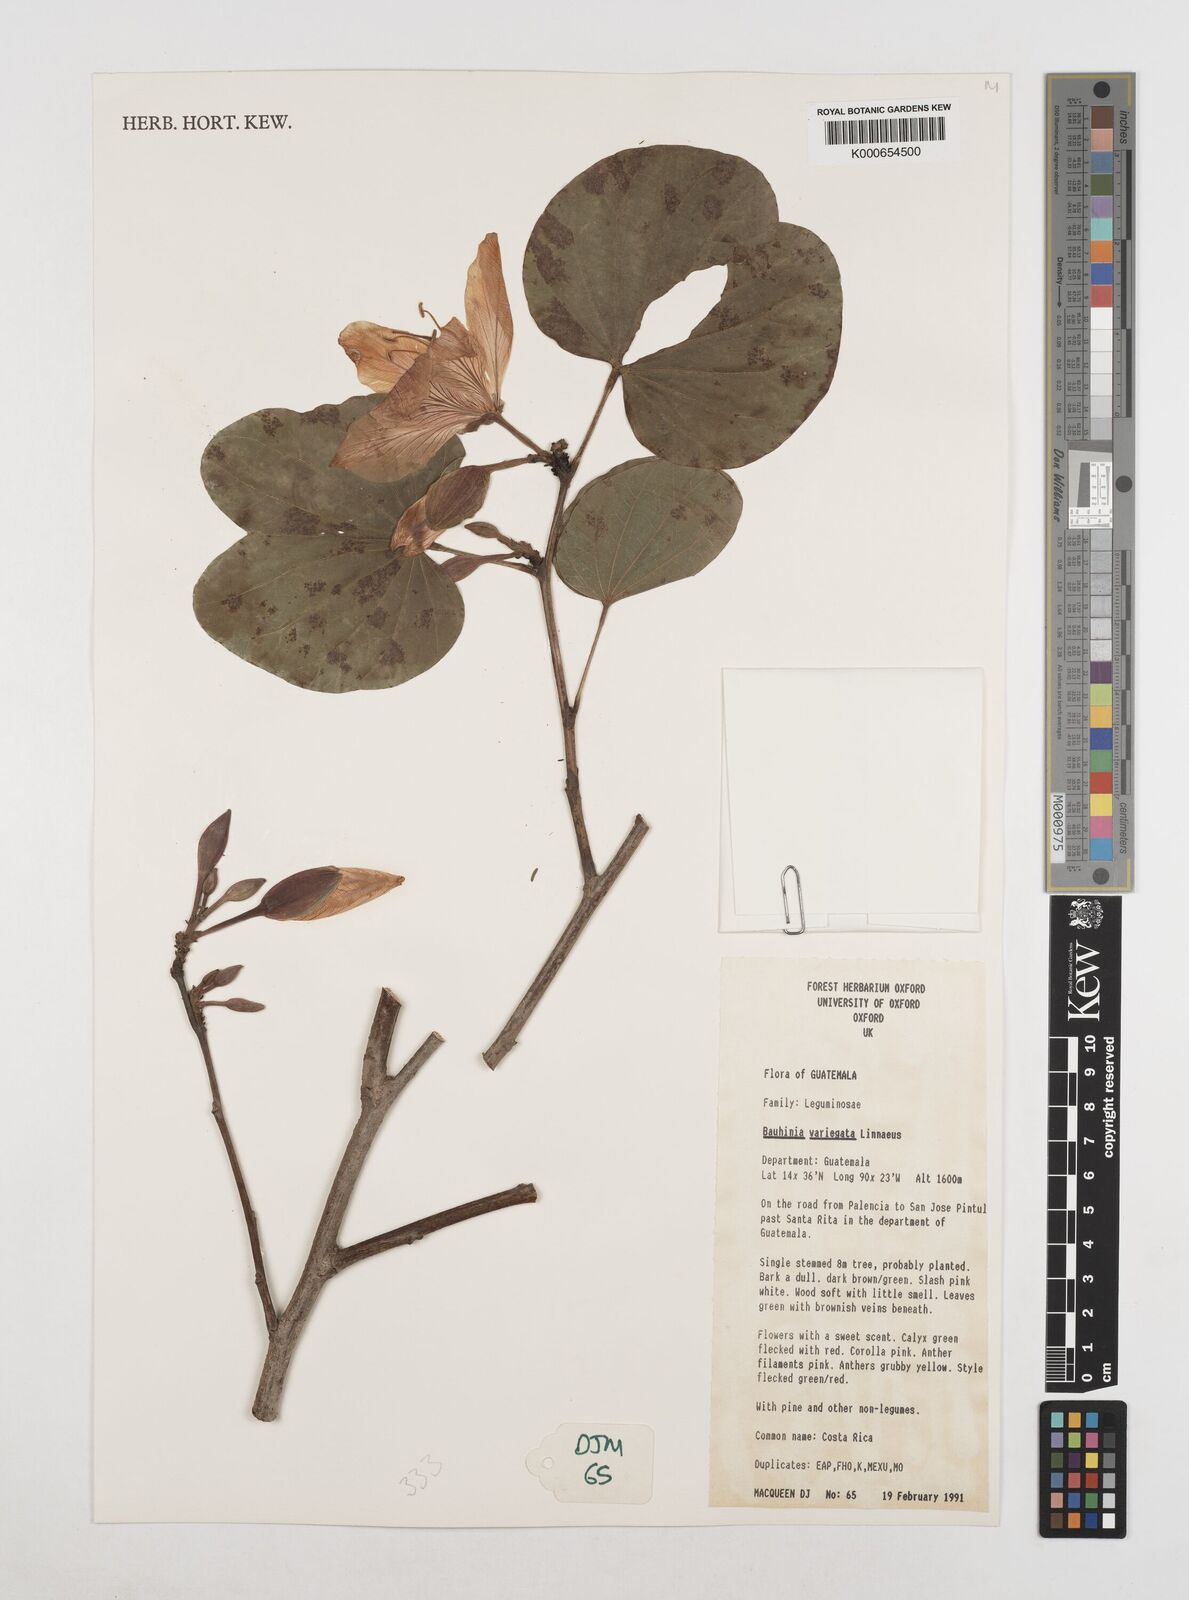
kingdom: Plantae
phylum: Tracheophyta
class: Magnoliopsida
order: Fabales
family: Fabaceae
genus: Bauhinia
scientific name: Bauhinia variegata
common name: Mountain ebony
